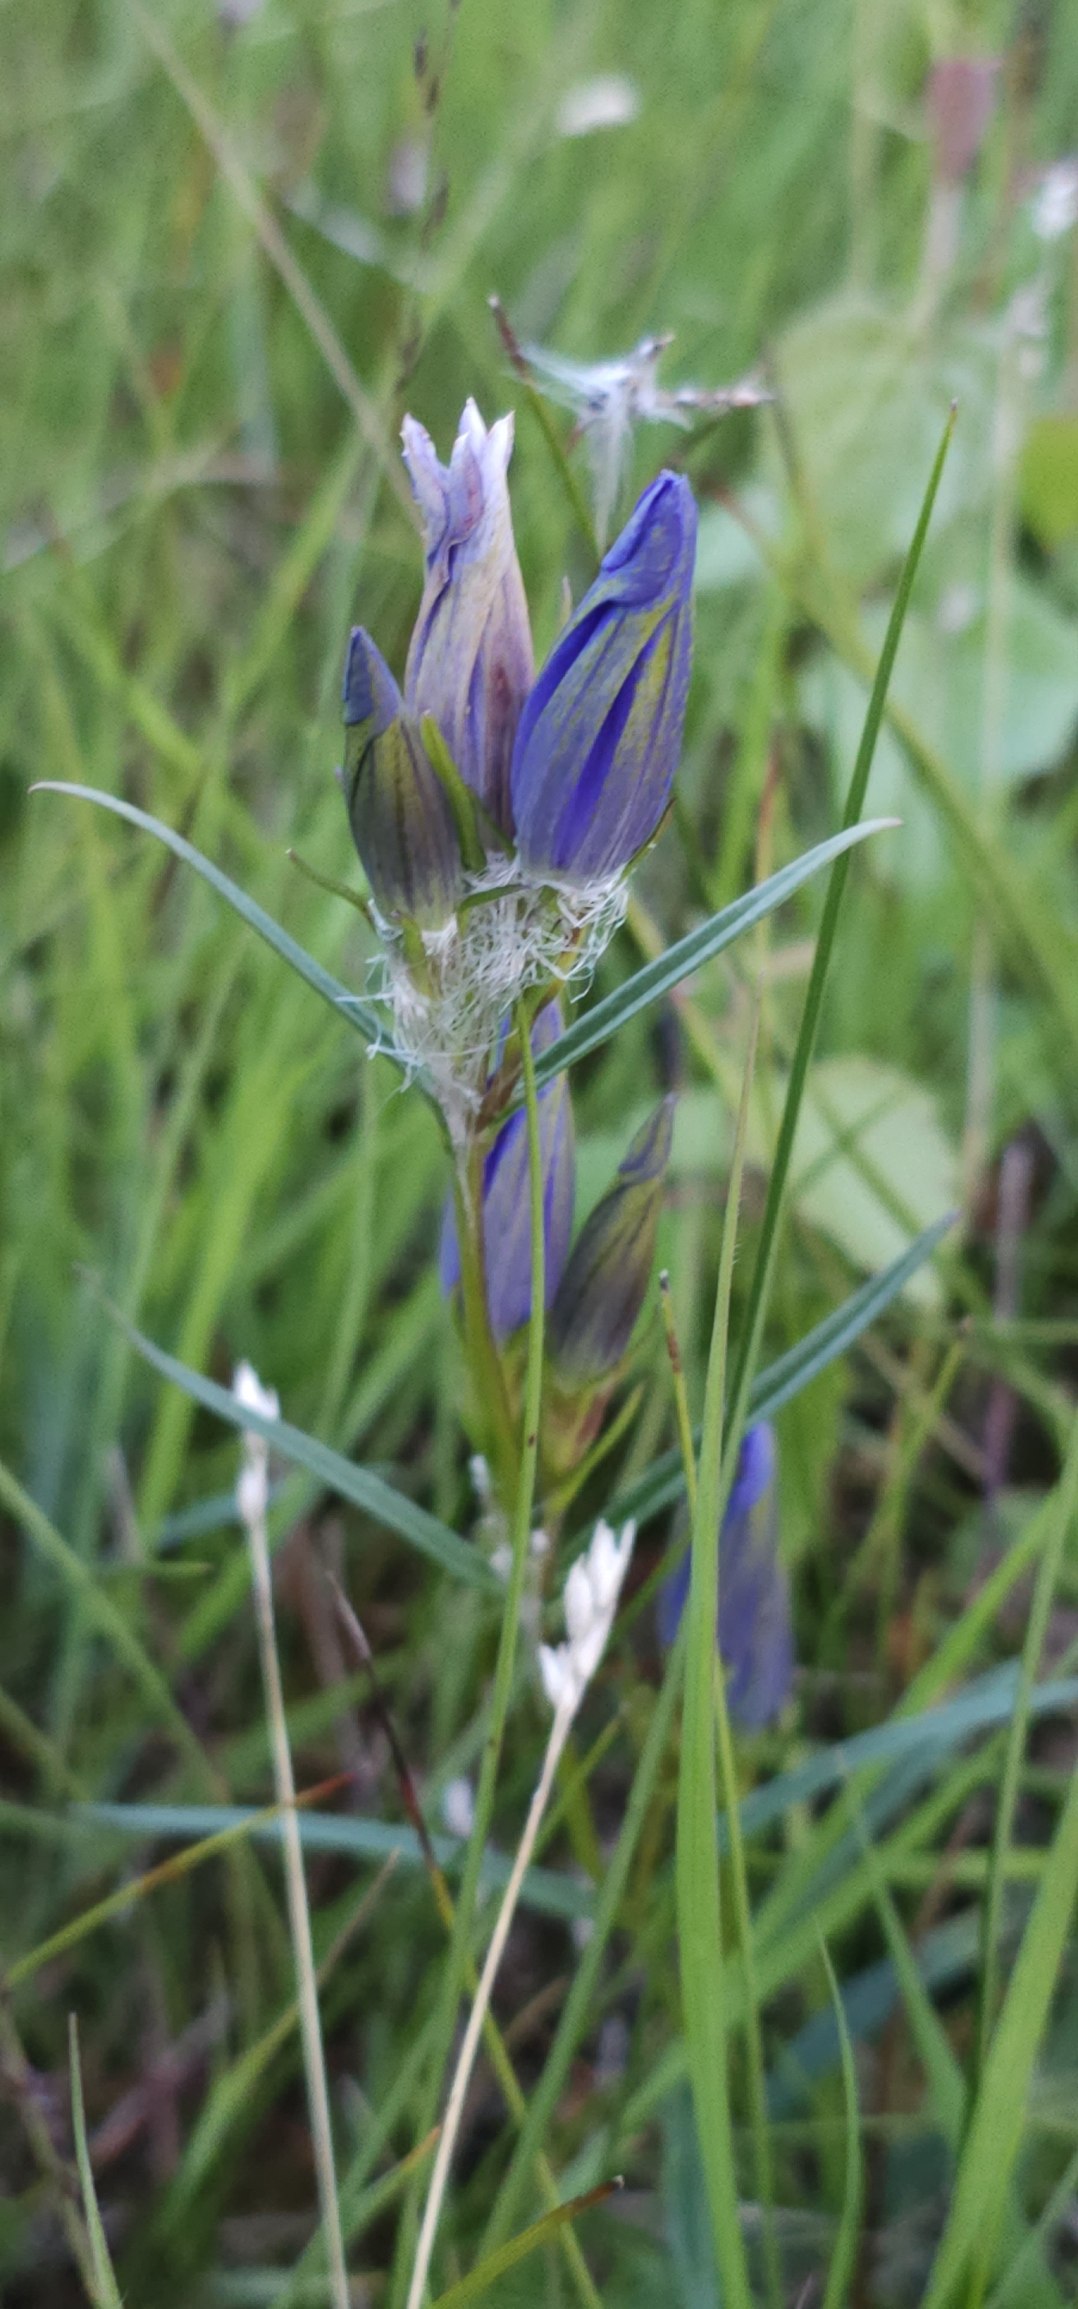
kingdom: Plantae
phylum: Tracheophyta
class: Magnoliopsida
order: Gentianales
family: Gentianaceae
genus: Gentiana
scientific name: Gentiana pneumonanthe
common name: Klokke-ensian
